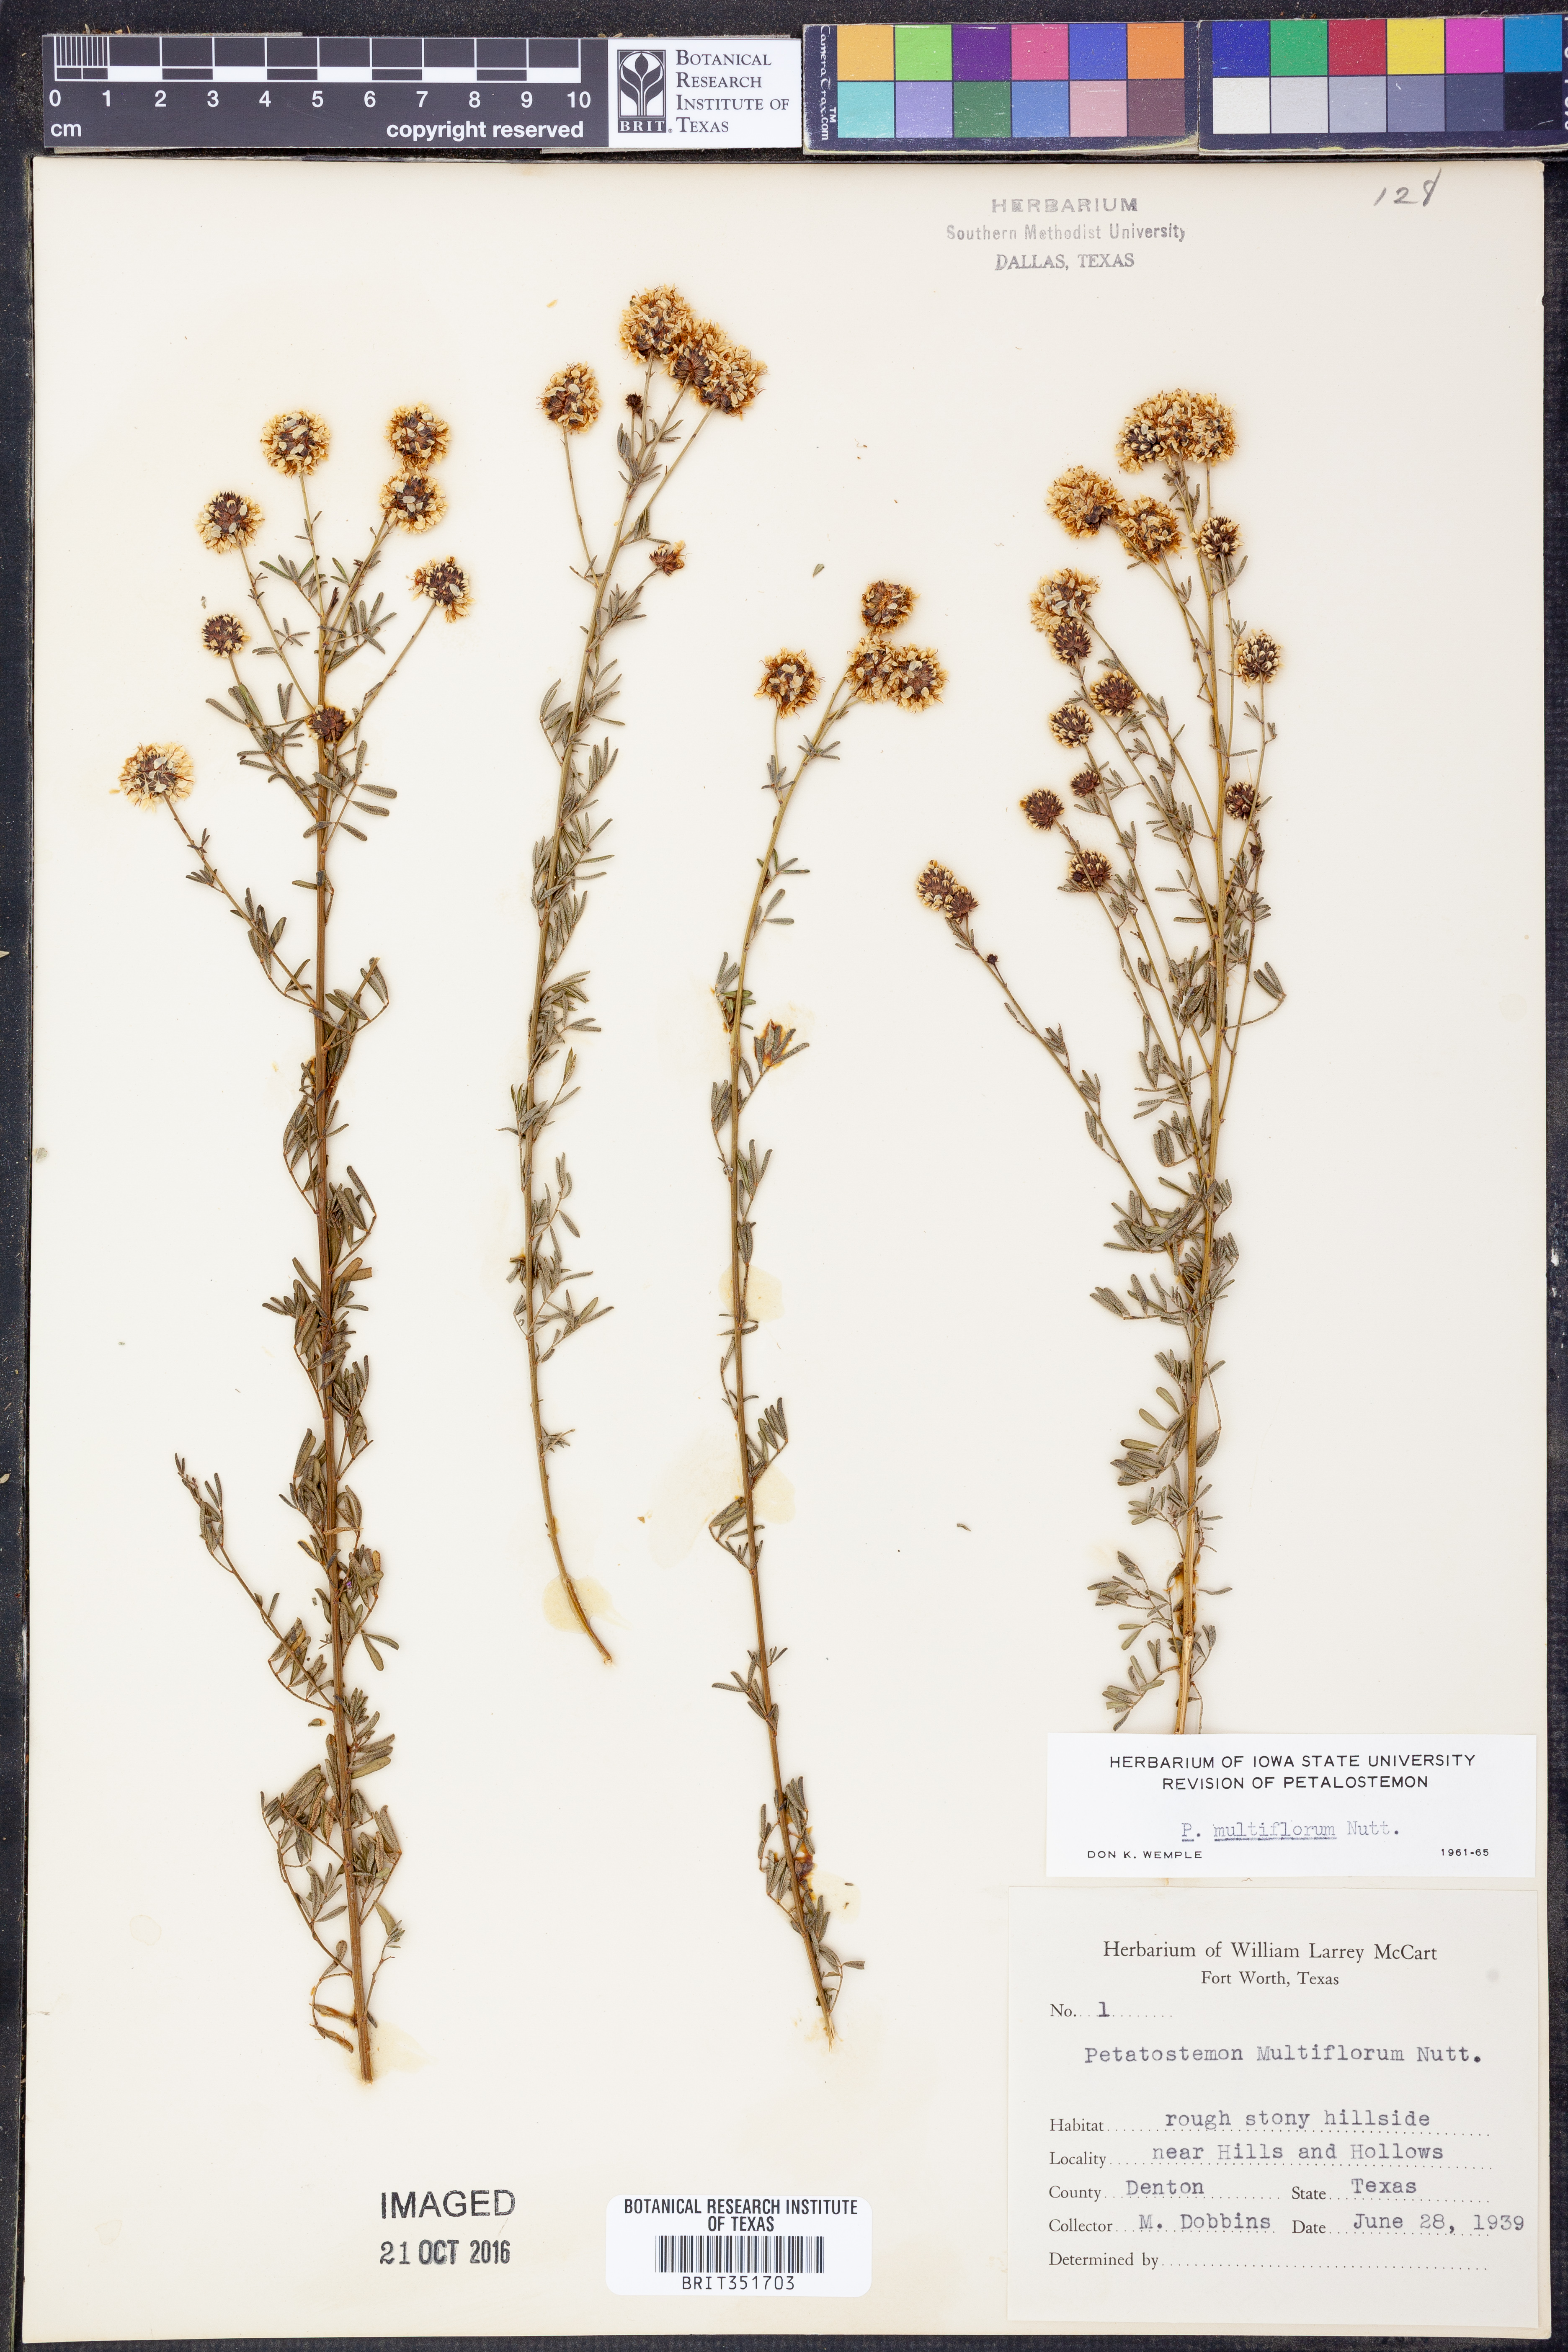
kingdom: Plantae
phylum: Tracheophyta
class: Magnoliopsida
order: Fabales
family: Fabaceae
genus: Dalea
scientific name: Dalea multiflora
